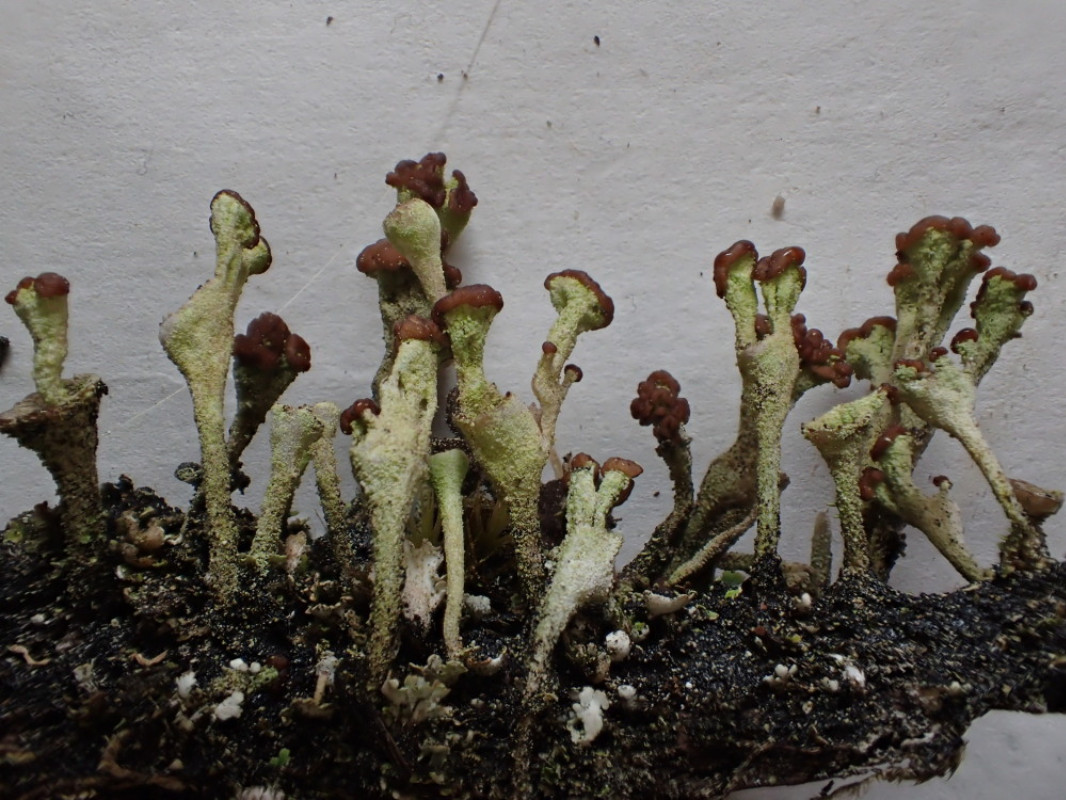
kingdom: Fungi
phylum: Ascomycota
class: Lecanoromycetes
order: Lecanorales
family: Cladoniaceae
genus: Cladonia
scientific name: Cladonia
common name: brungrøn bægerlav
